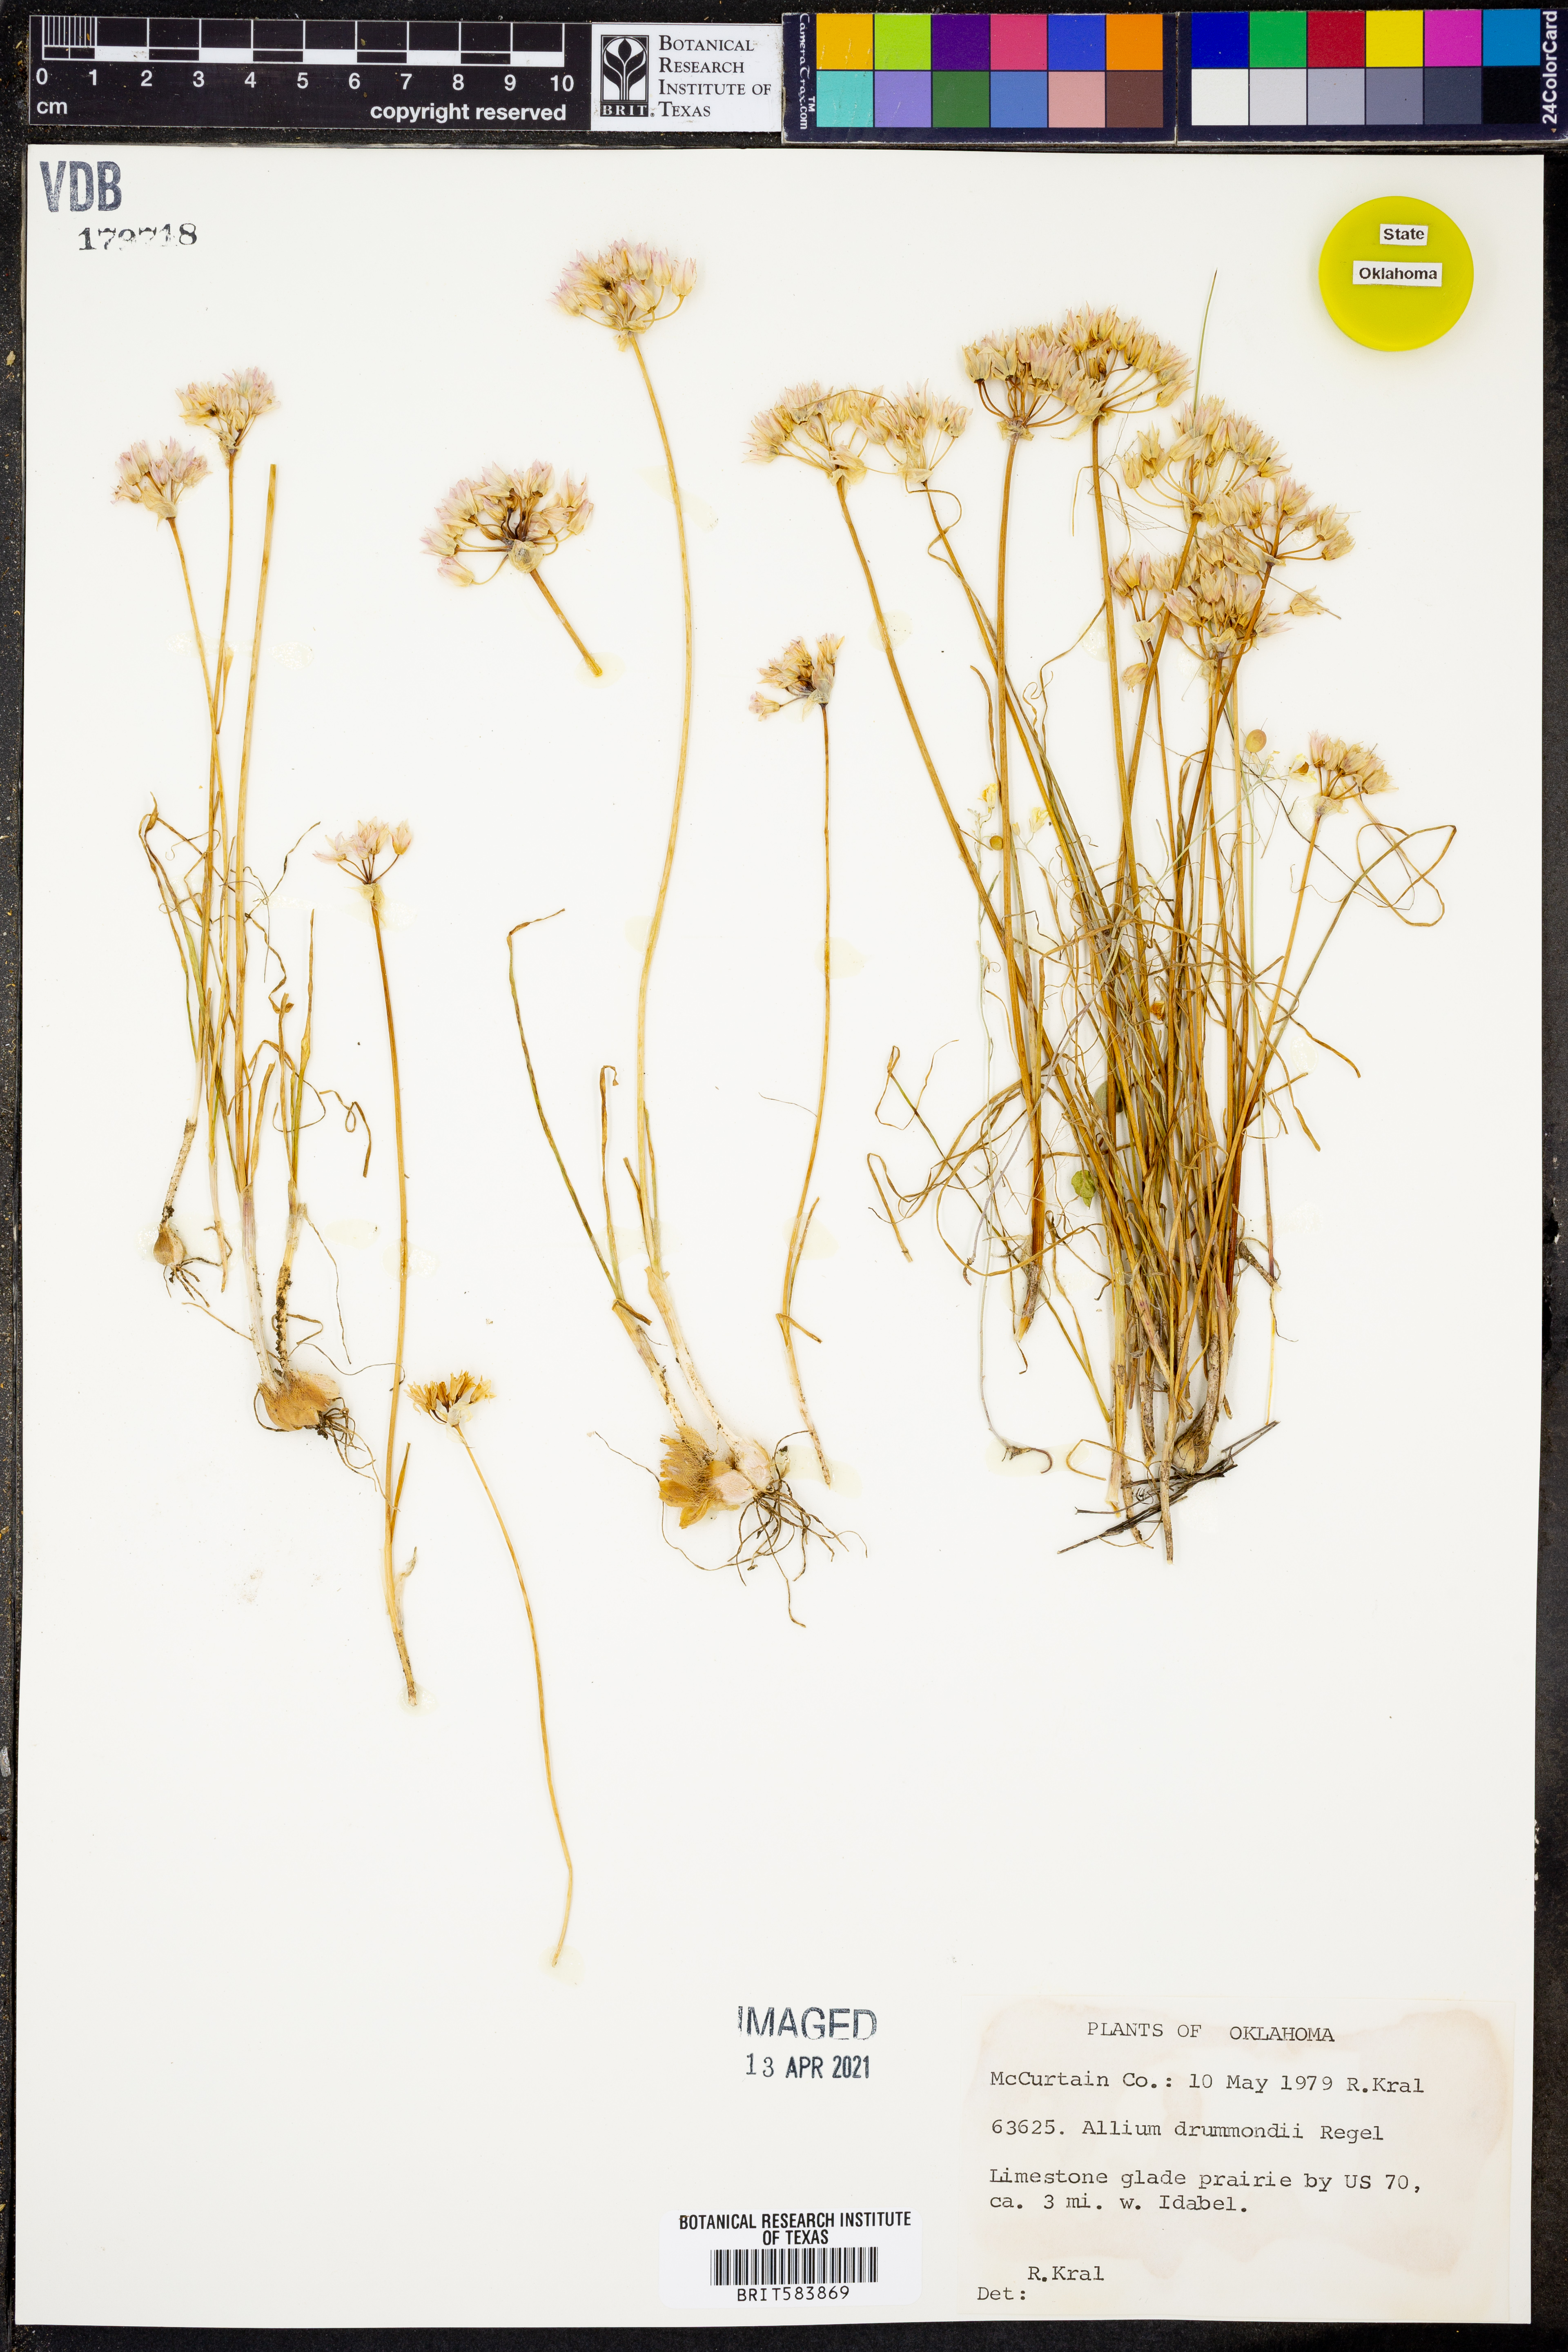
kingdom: Plantae
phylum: Tracheophyta
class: Liliopsida
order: Asparagales
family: Amaryllidaceae
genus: Allium
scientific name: Allium drummondii
